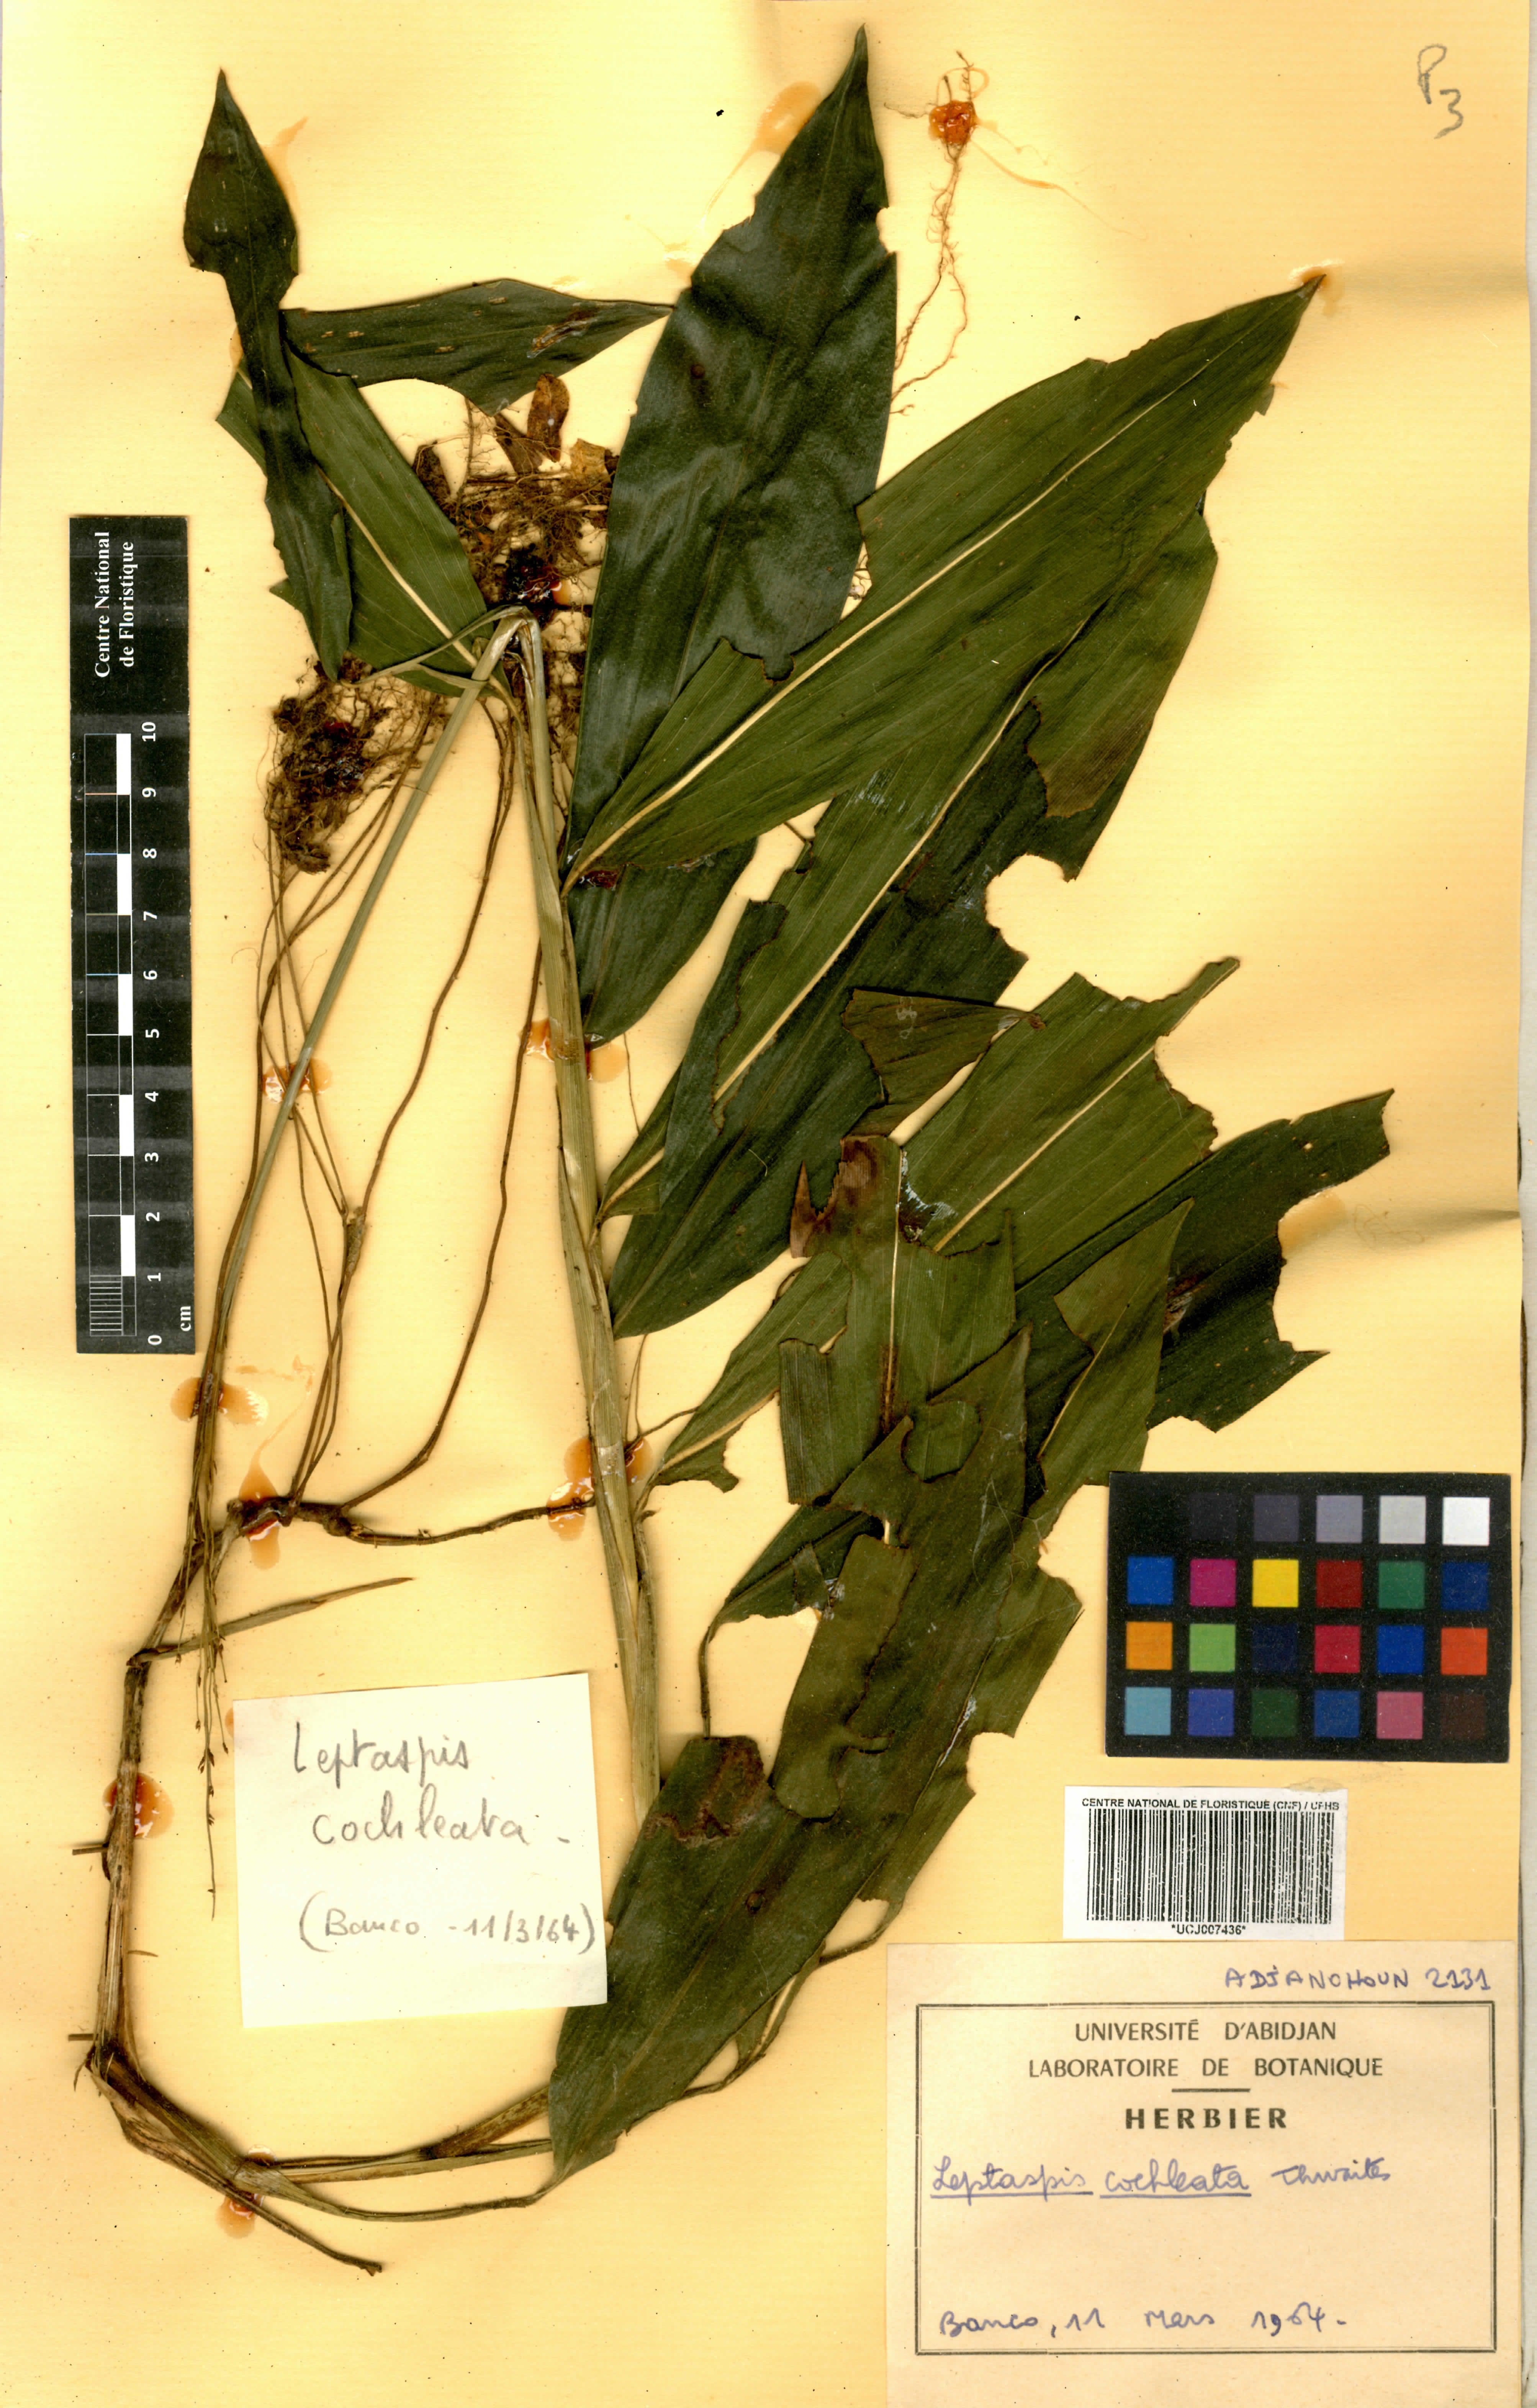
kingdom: Plantae
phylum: Tracheophyta
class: Liliopsida
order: Poales
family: Poaceae
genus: Leptaspis
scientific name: Leptaspis zeylanica
